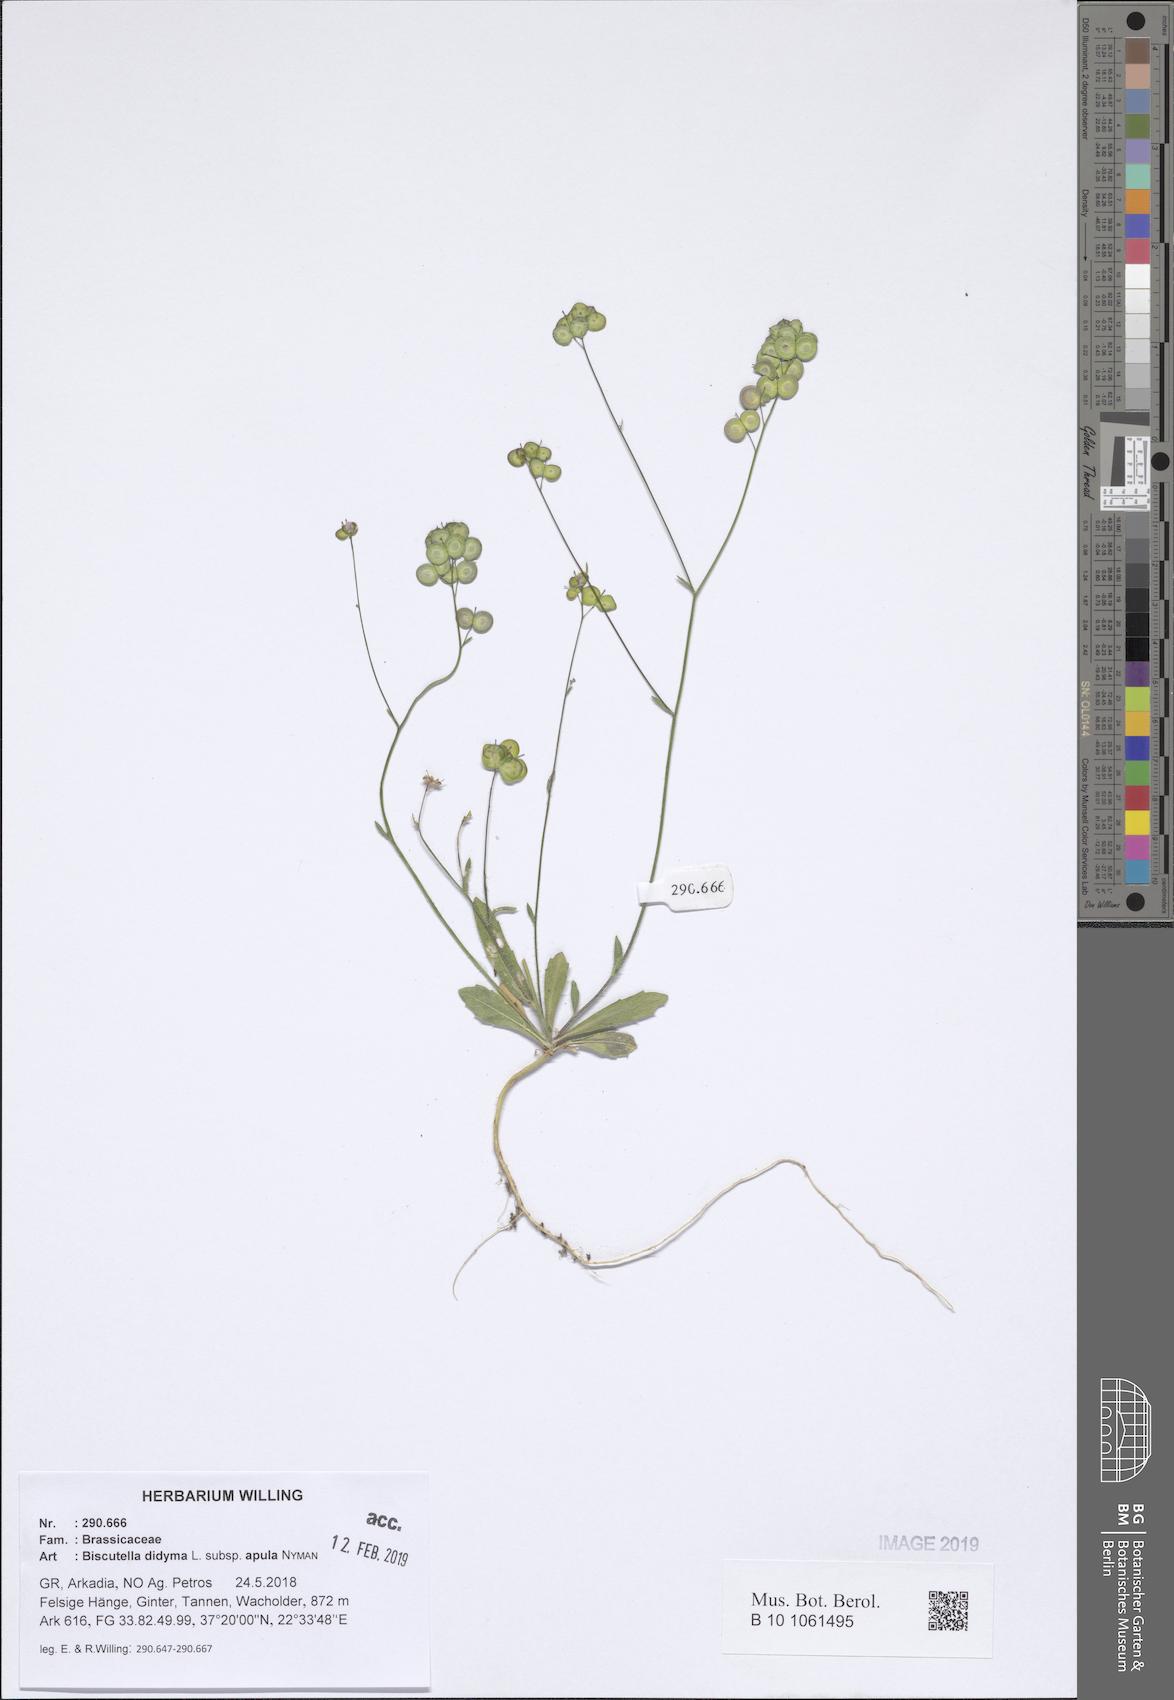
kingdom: Plantae
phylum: Tracheophyta
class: Magnoliopsida
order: Brassicales
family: Brassicaceae
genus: Biscutella
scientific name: Biscutella didyma
